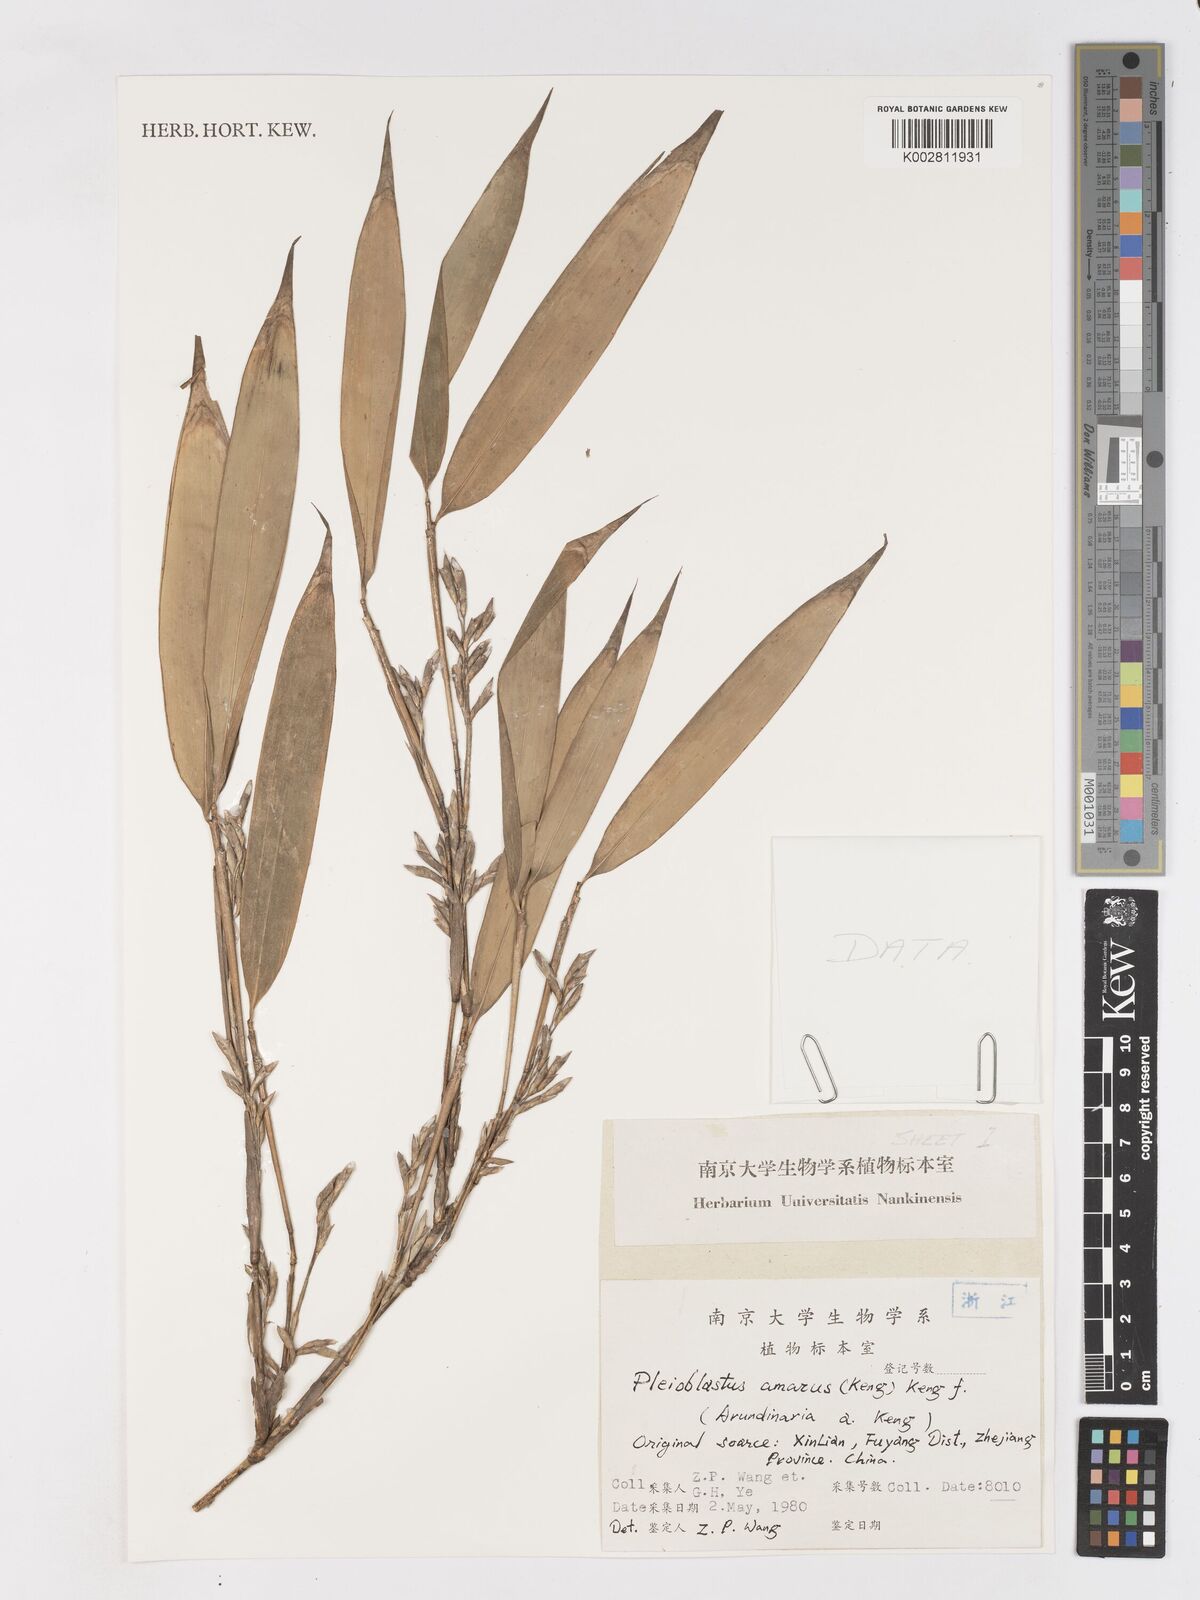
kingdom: Plantae
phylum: Tracheophyta
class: Liliopsida
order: Poales
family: Poaceae
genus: Pleioblastus
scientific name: Pleioblastus amarus
